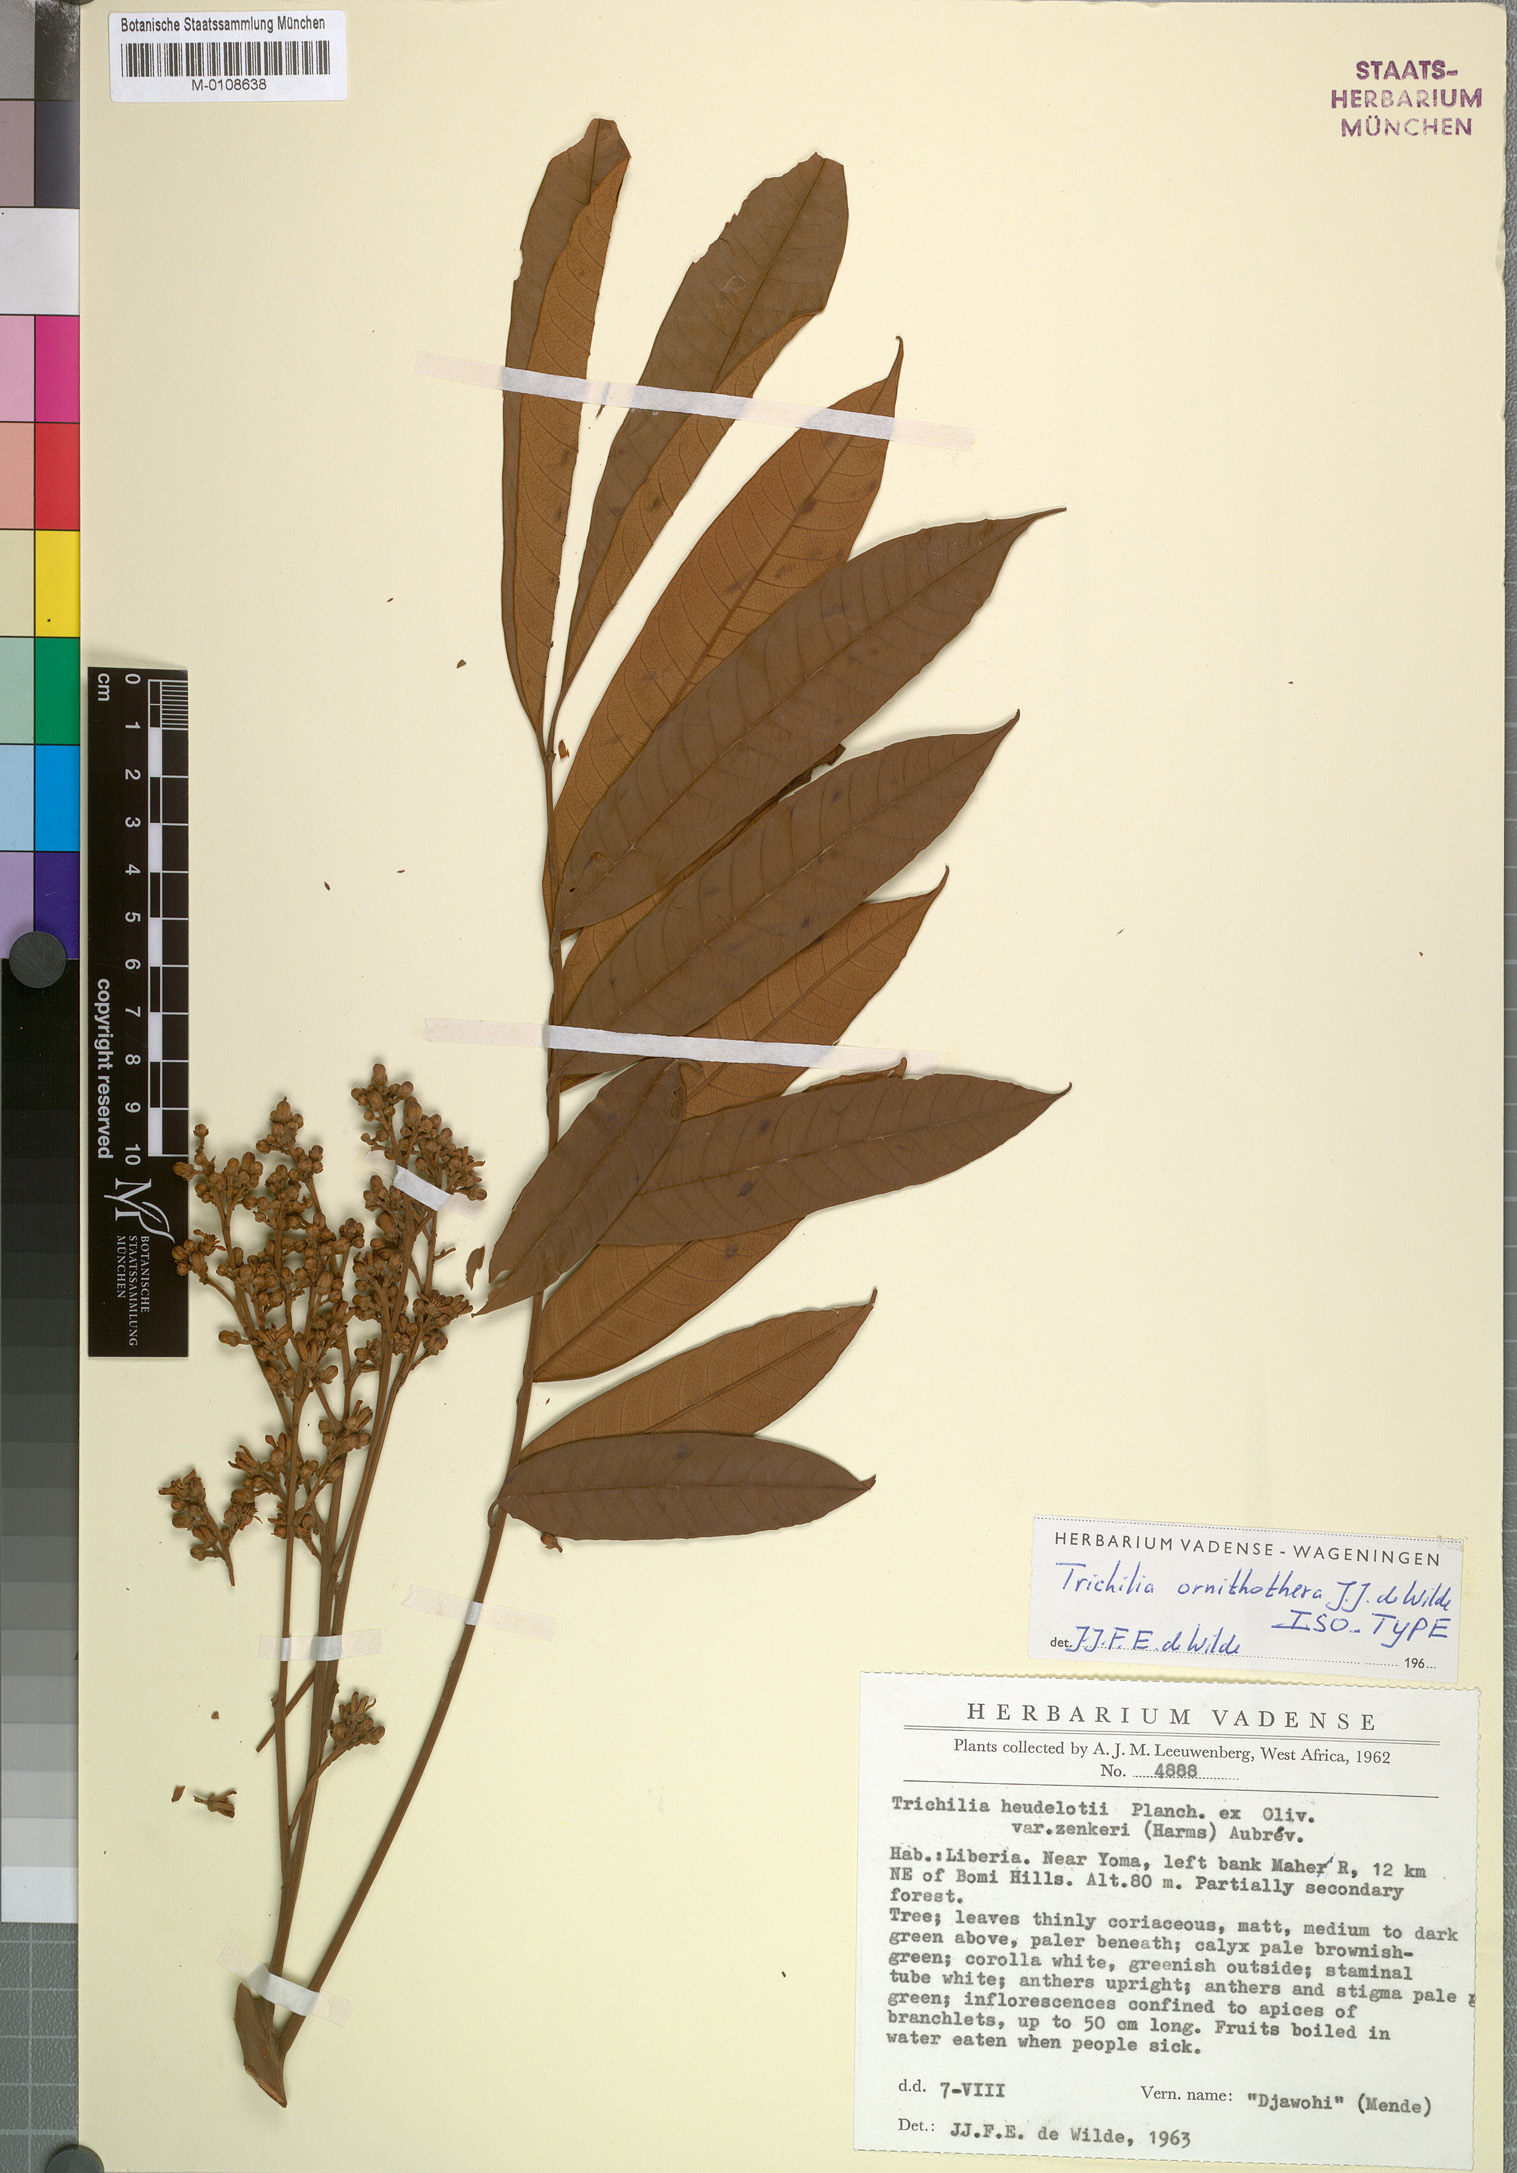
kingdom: Plantae
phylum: Tracheophyta
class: Magnoliopsida
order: Sapindales
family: Meliaceae
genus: Trichilia
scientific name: Trichilia ornithothera
